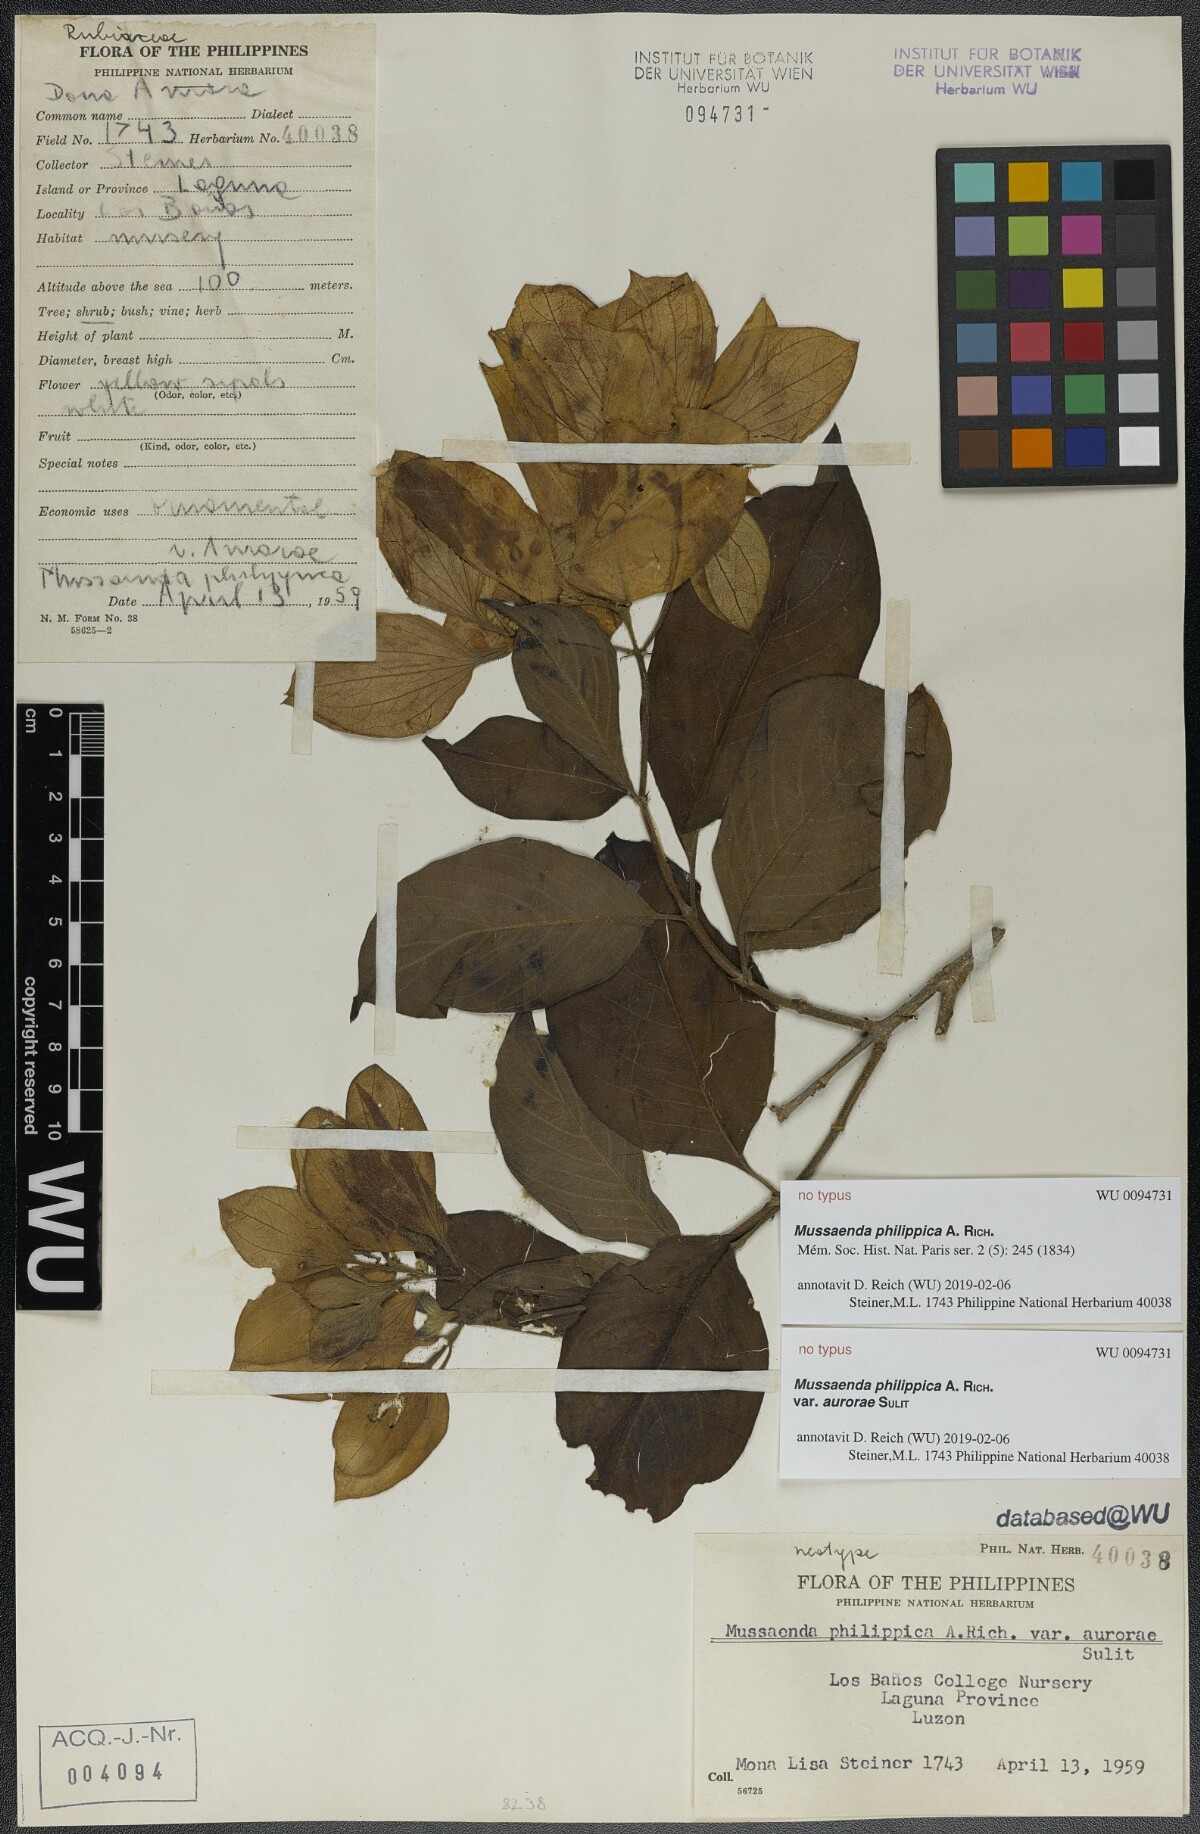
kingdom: Plantae
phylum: Tracheophyta
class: Magnoliopsida
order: Gentianales
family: Rubiaceae
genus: Mussaenda
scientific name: Mussaenda philippica
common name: Philippine mussaenda
